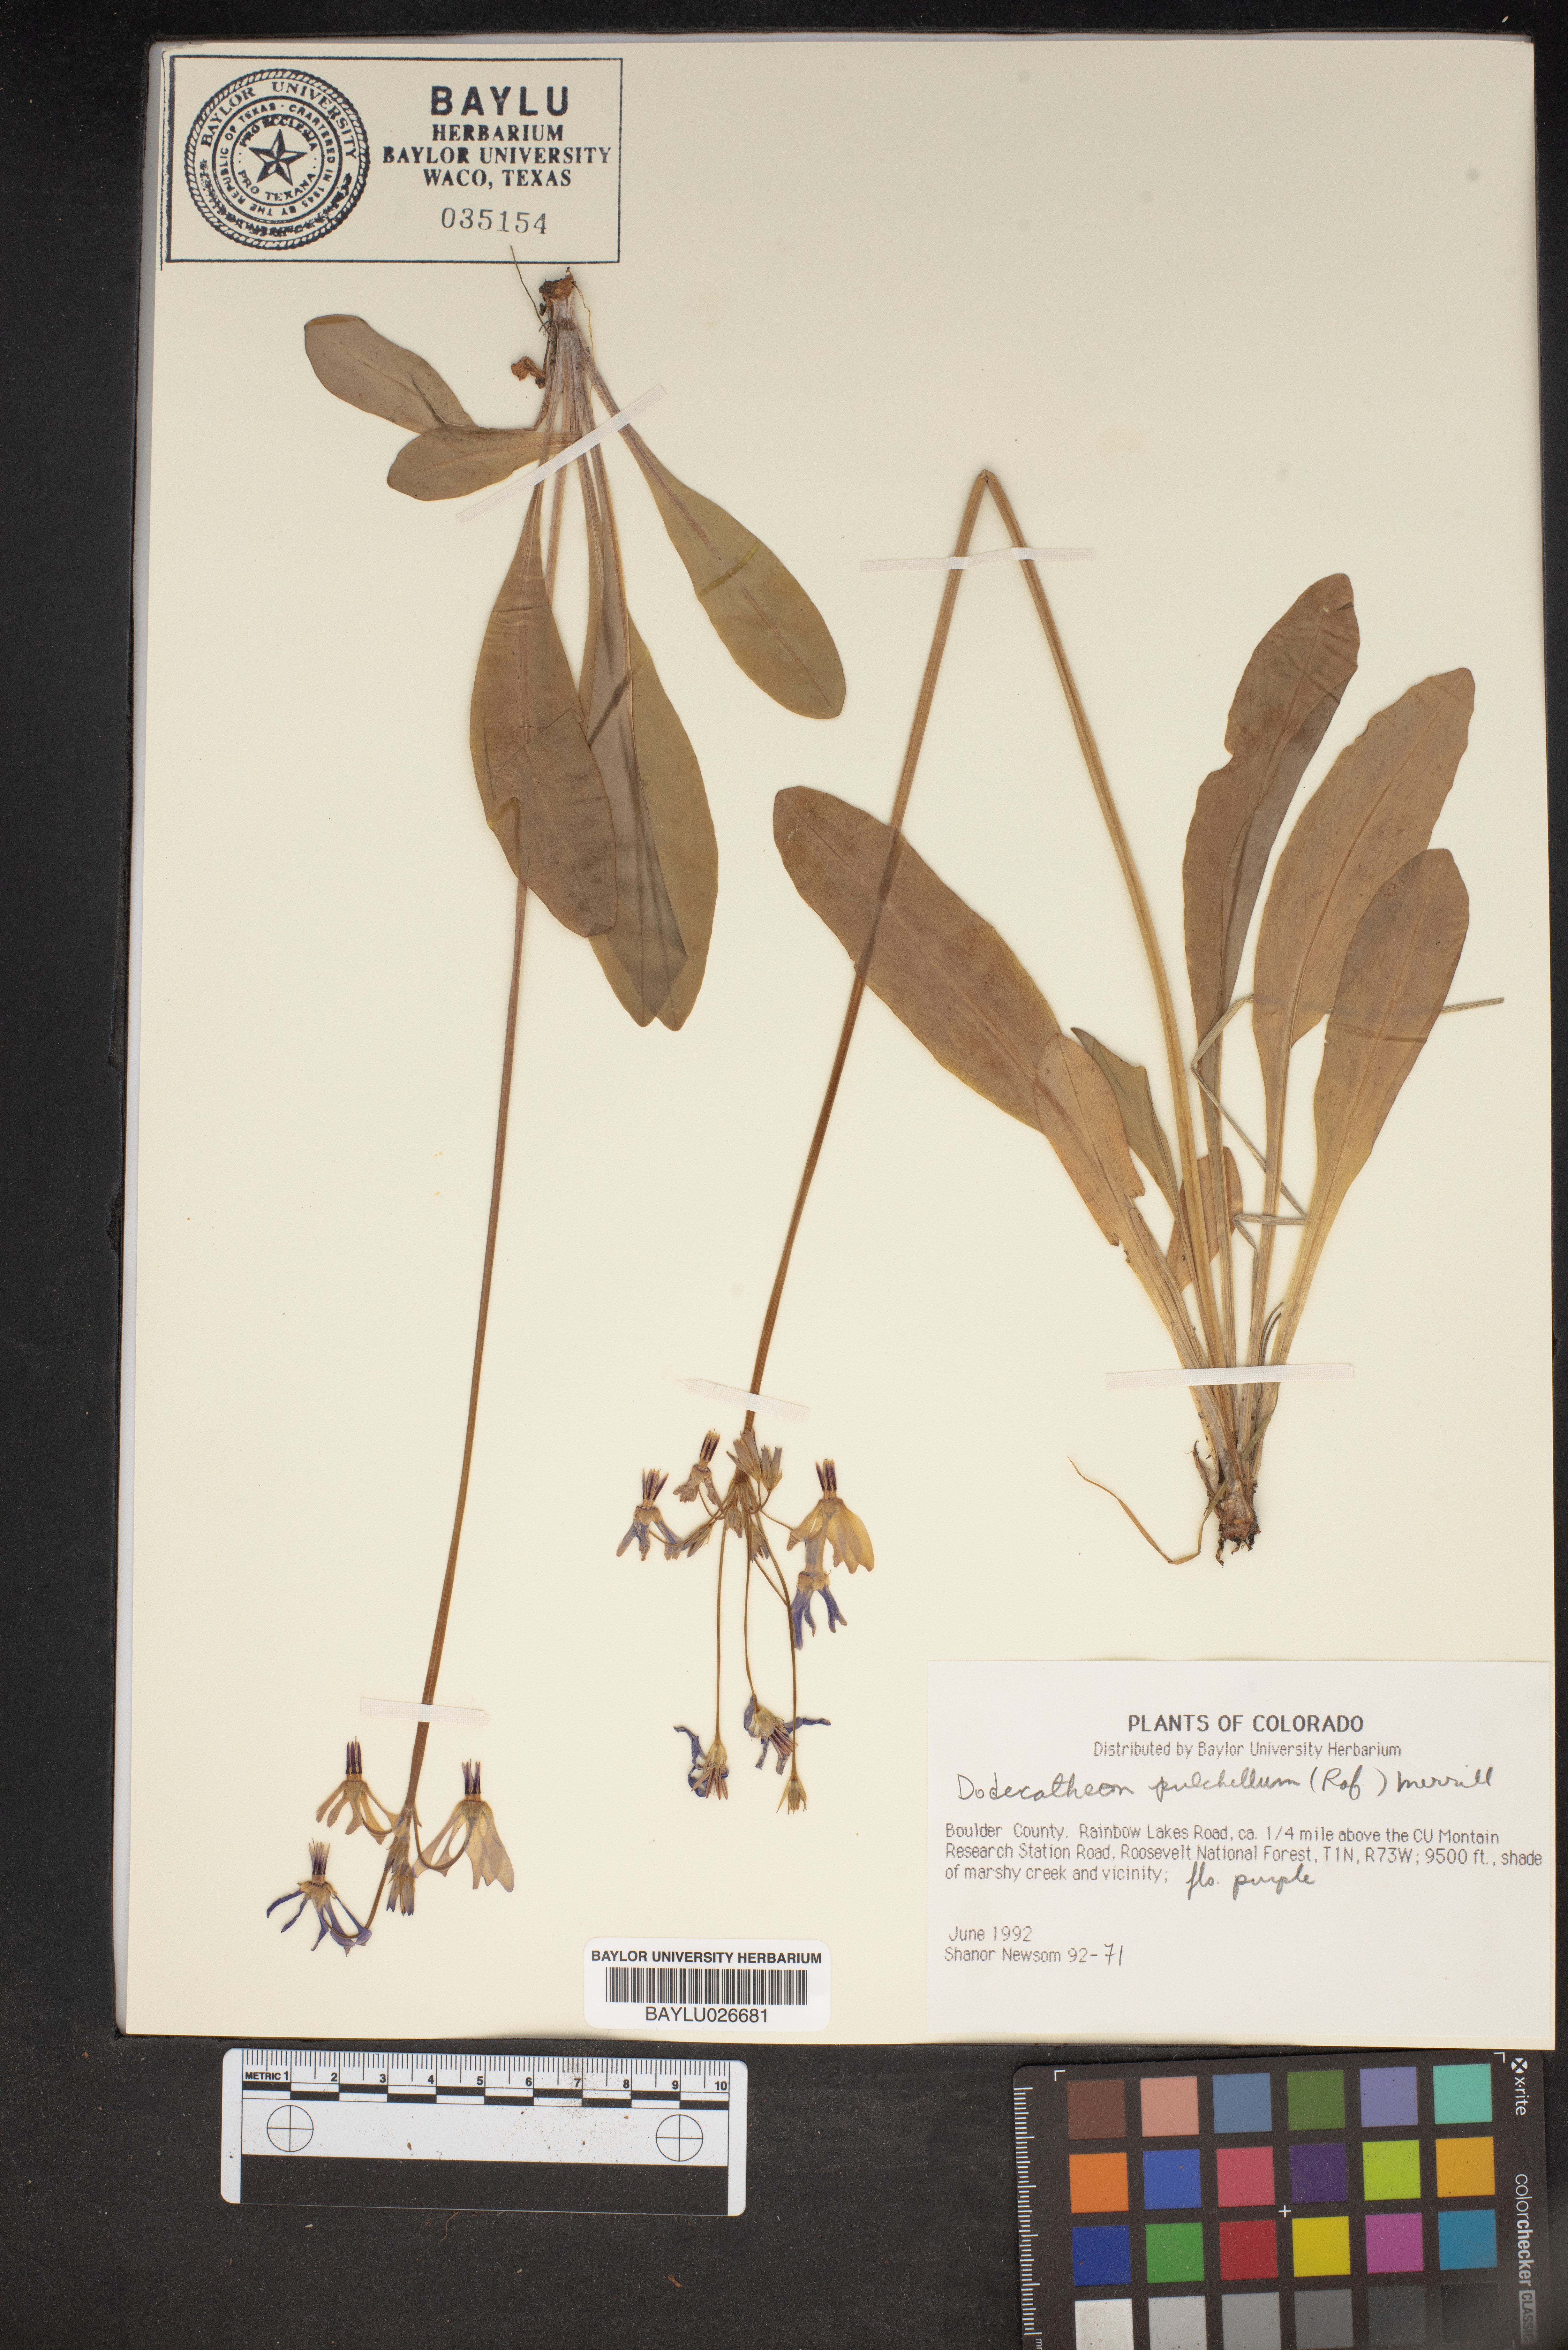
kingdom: Plantae
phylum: Tracheophyta
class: Magnoliopsida
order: Ericales
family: Primulaceae
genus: Dodecatheon
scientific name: Dodecatheon pulchellum
